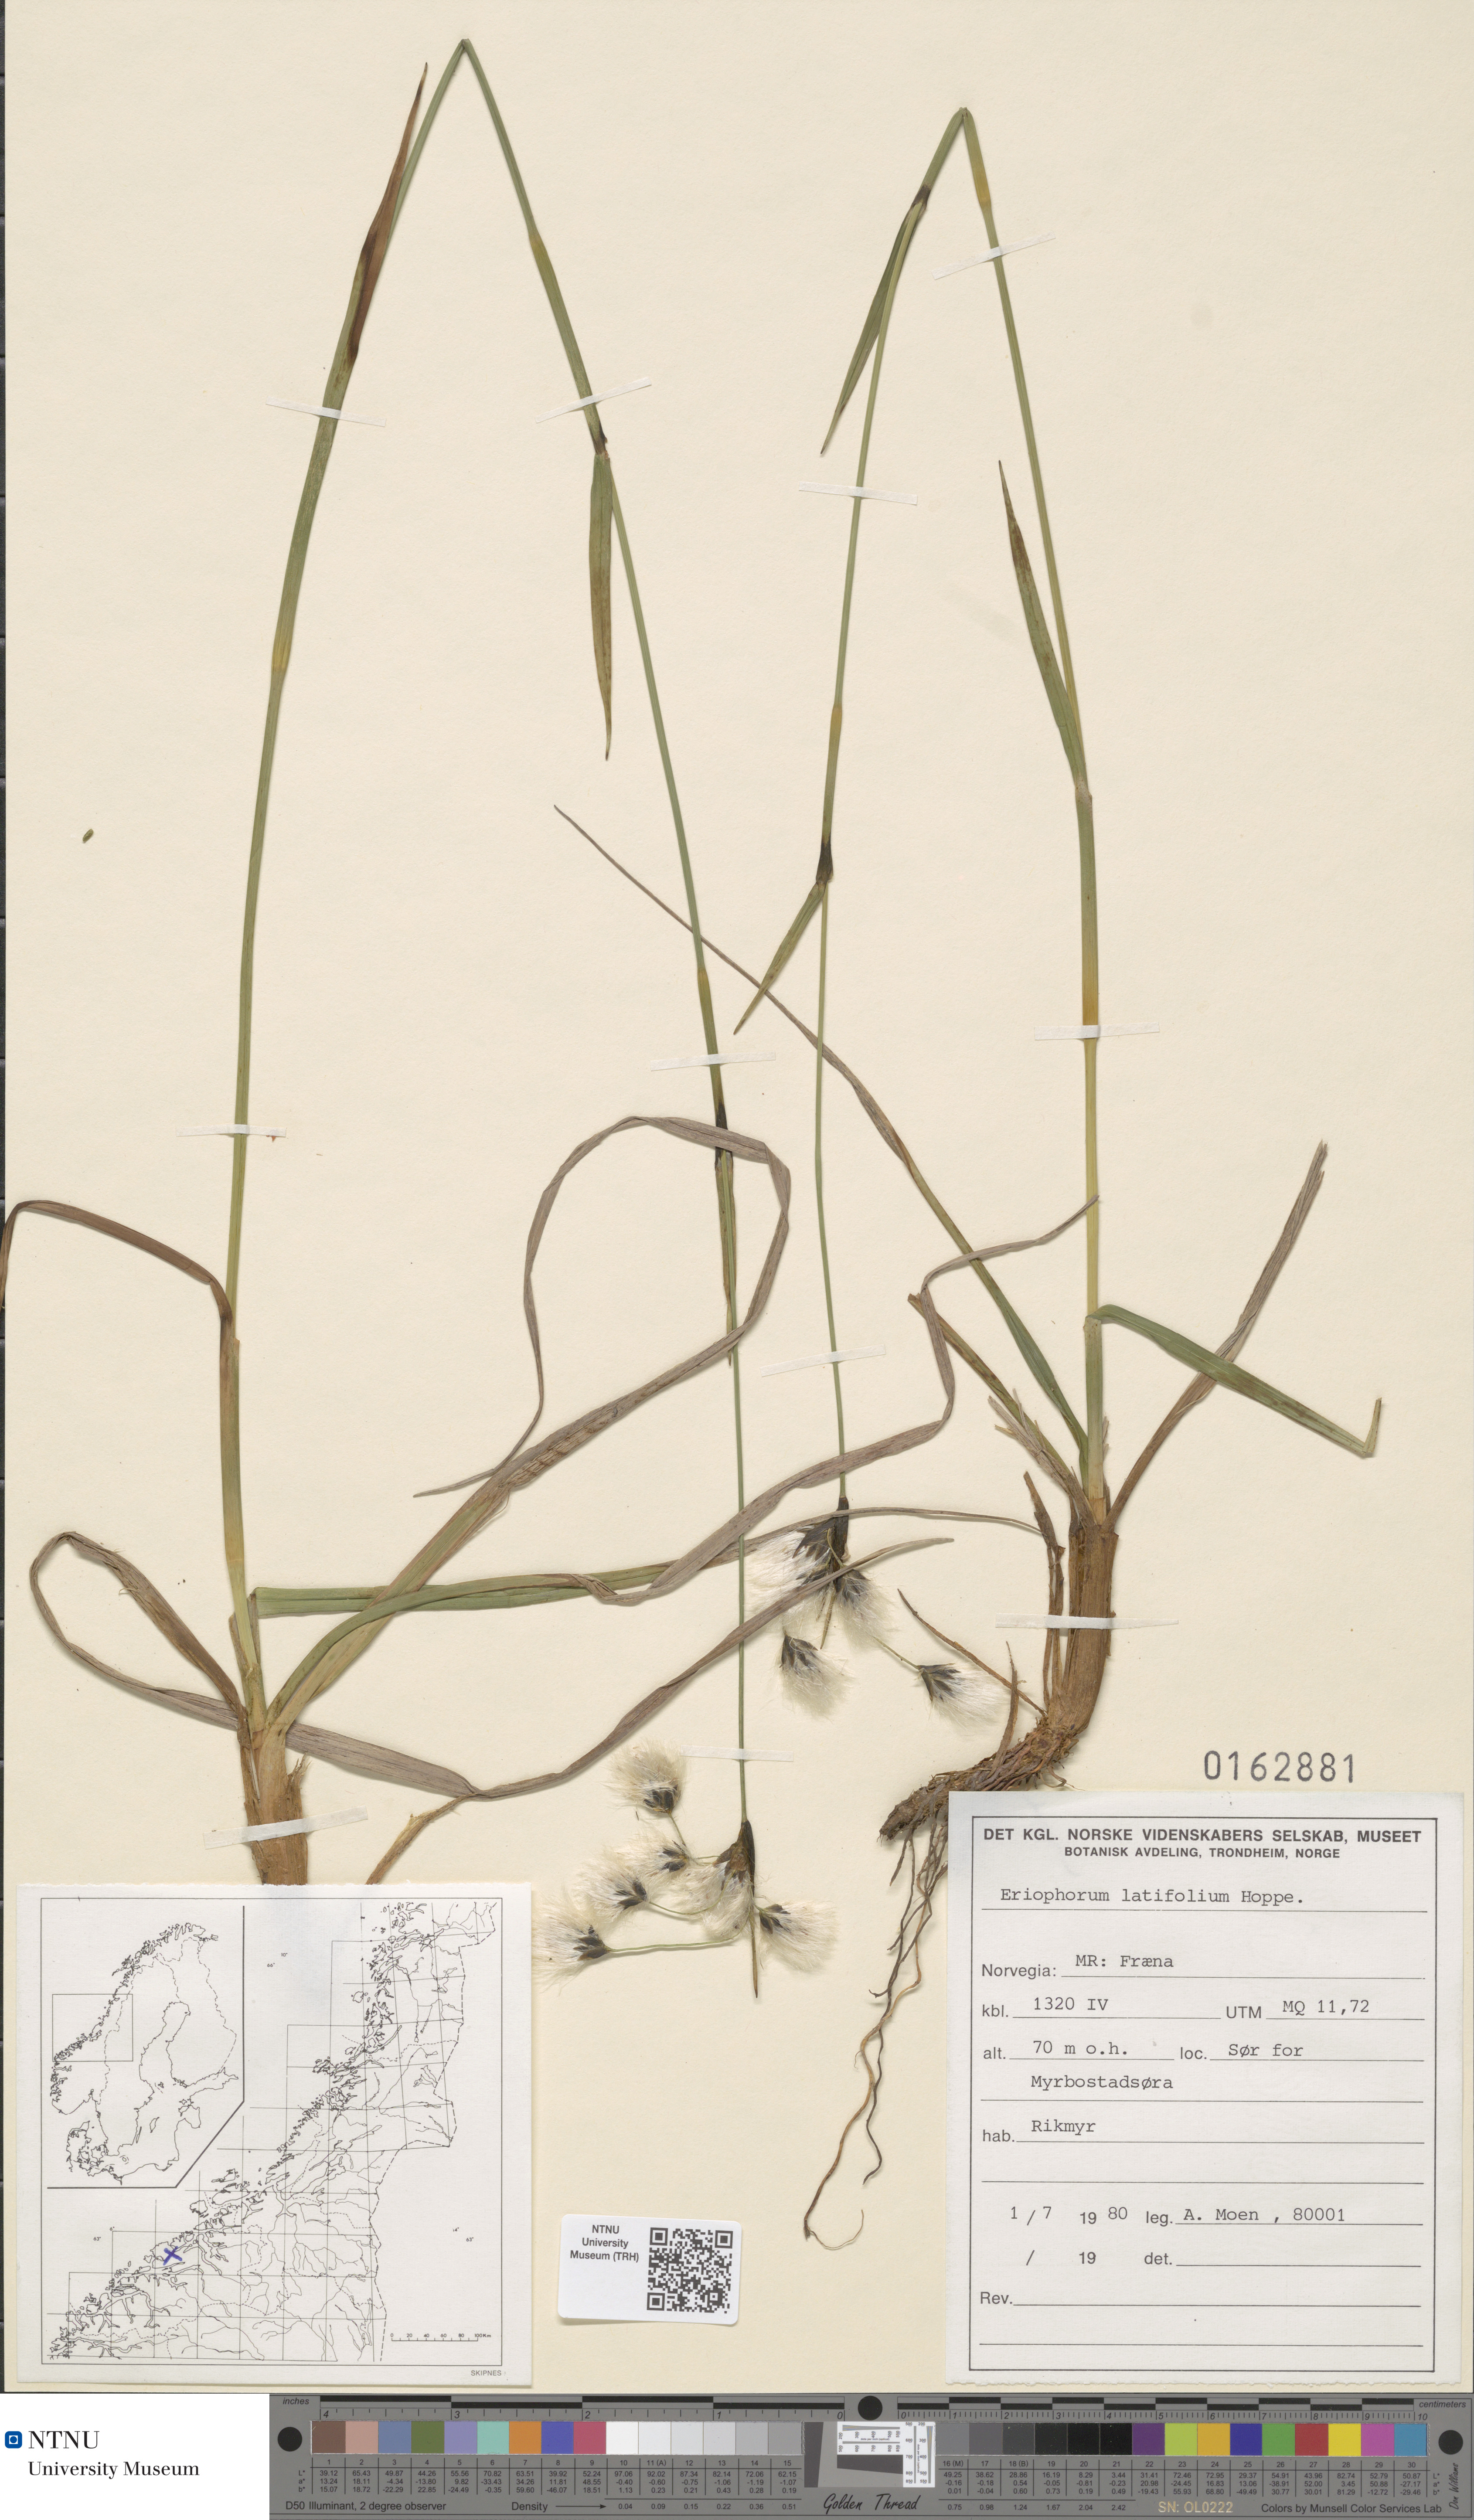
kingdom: Plantae
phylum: Tracheophyta
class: Liliopsida
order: Poales
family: Cyperaceae
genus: Eriophorum
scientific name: Eriophorum latifolium
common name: Broad-leaved cottongrass
